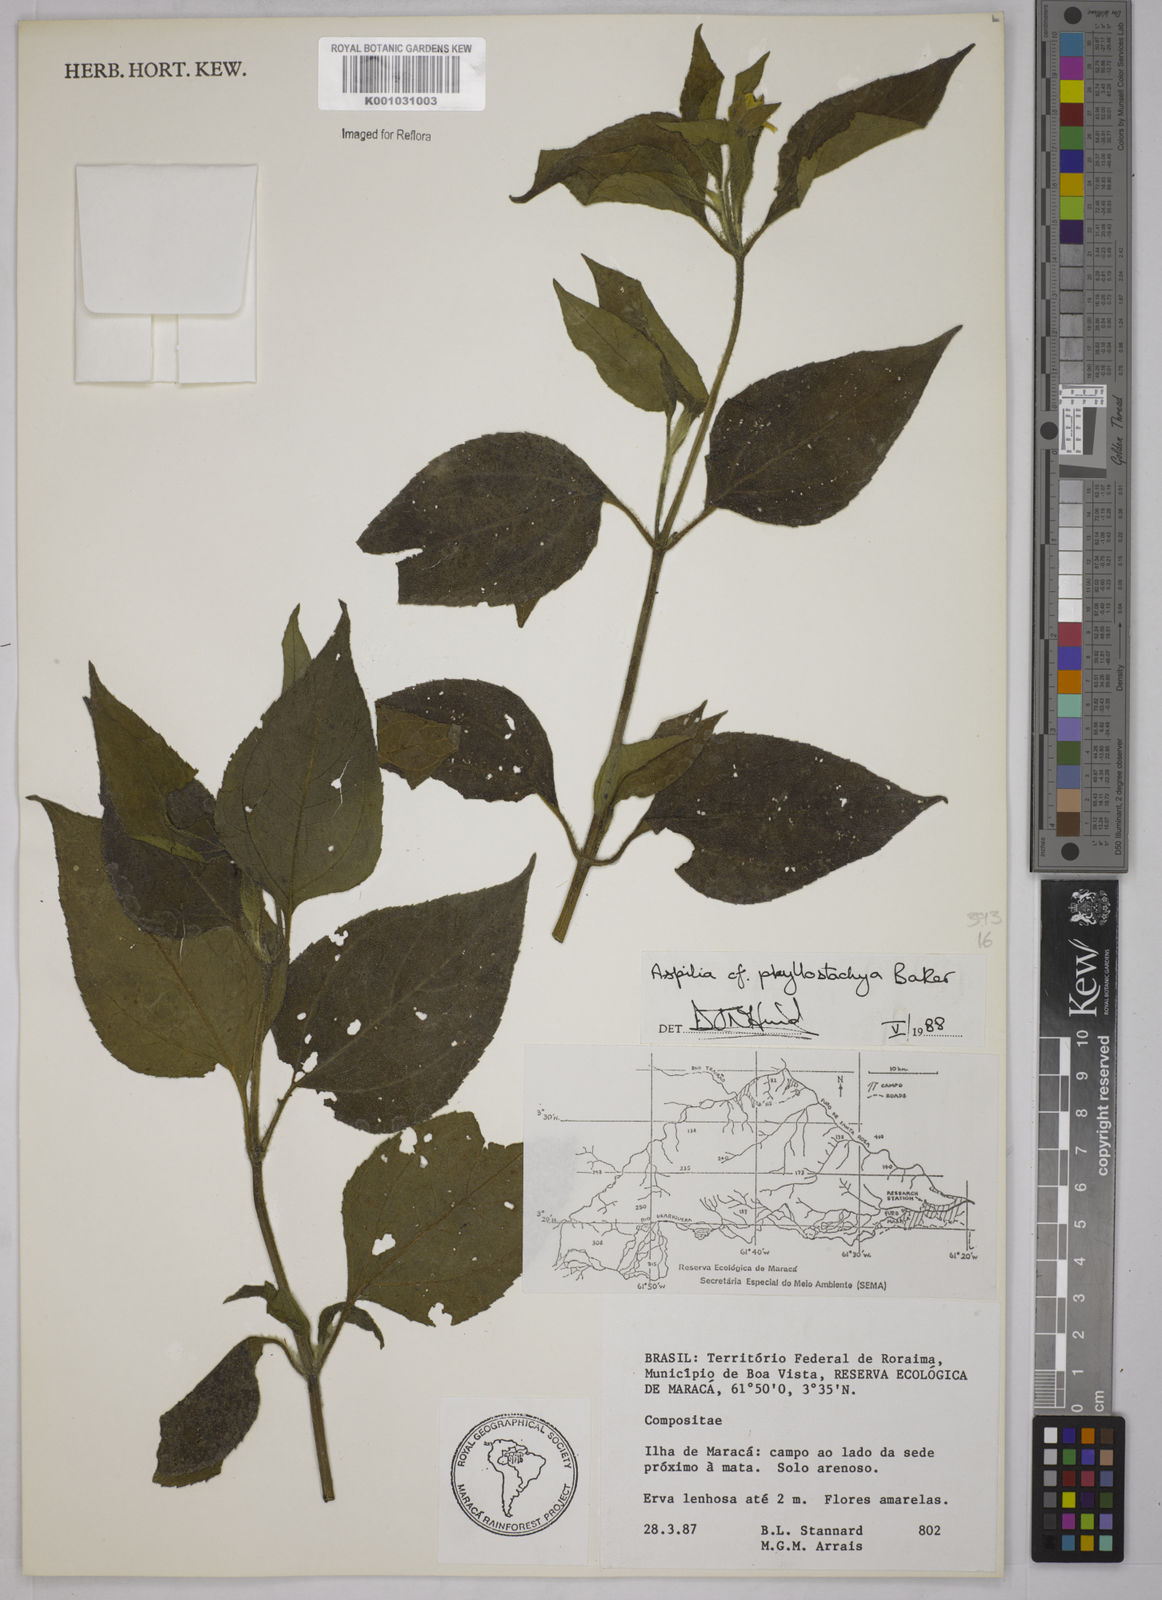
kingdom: Plantae
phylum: Tracheophyta
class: Magnoliopsida
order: Asterales
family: Asteraceae
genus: Wedelia
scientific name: Wedelia phyllostachya
